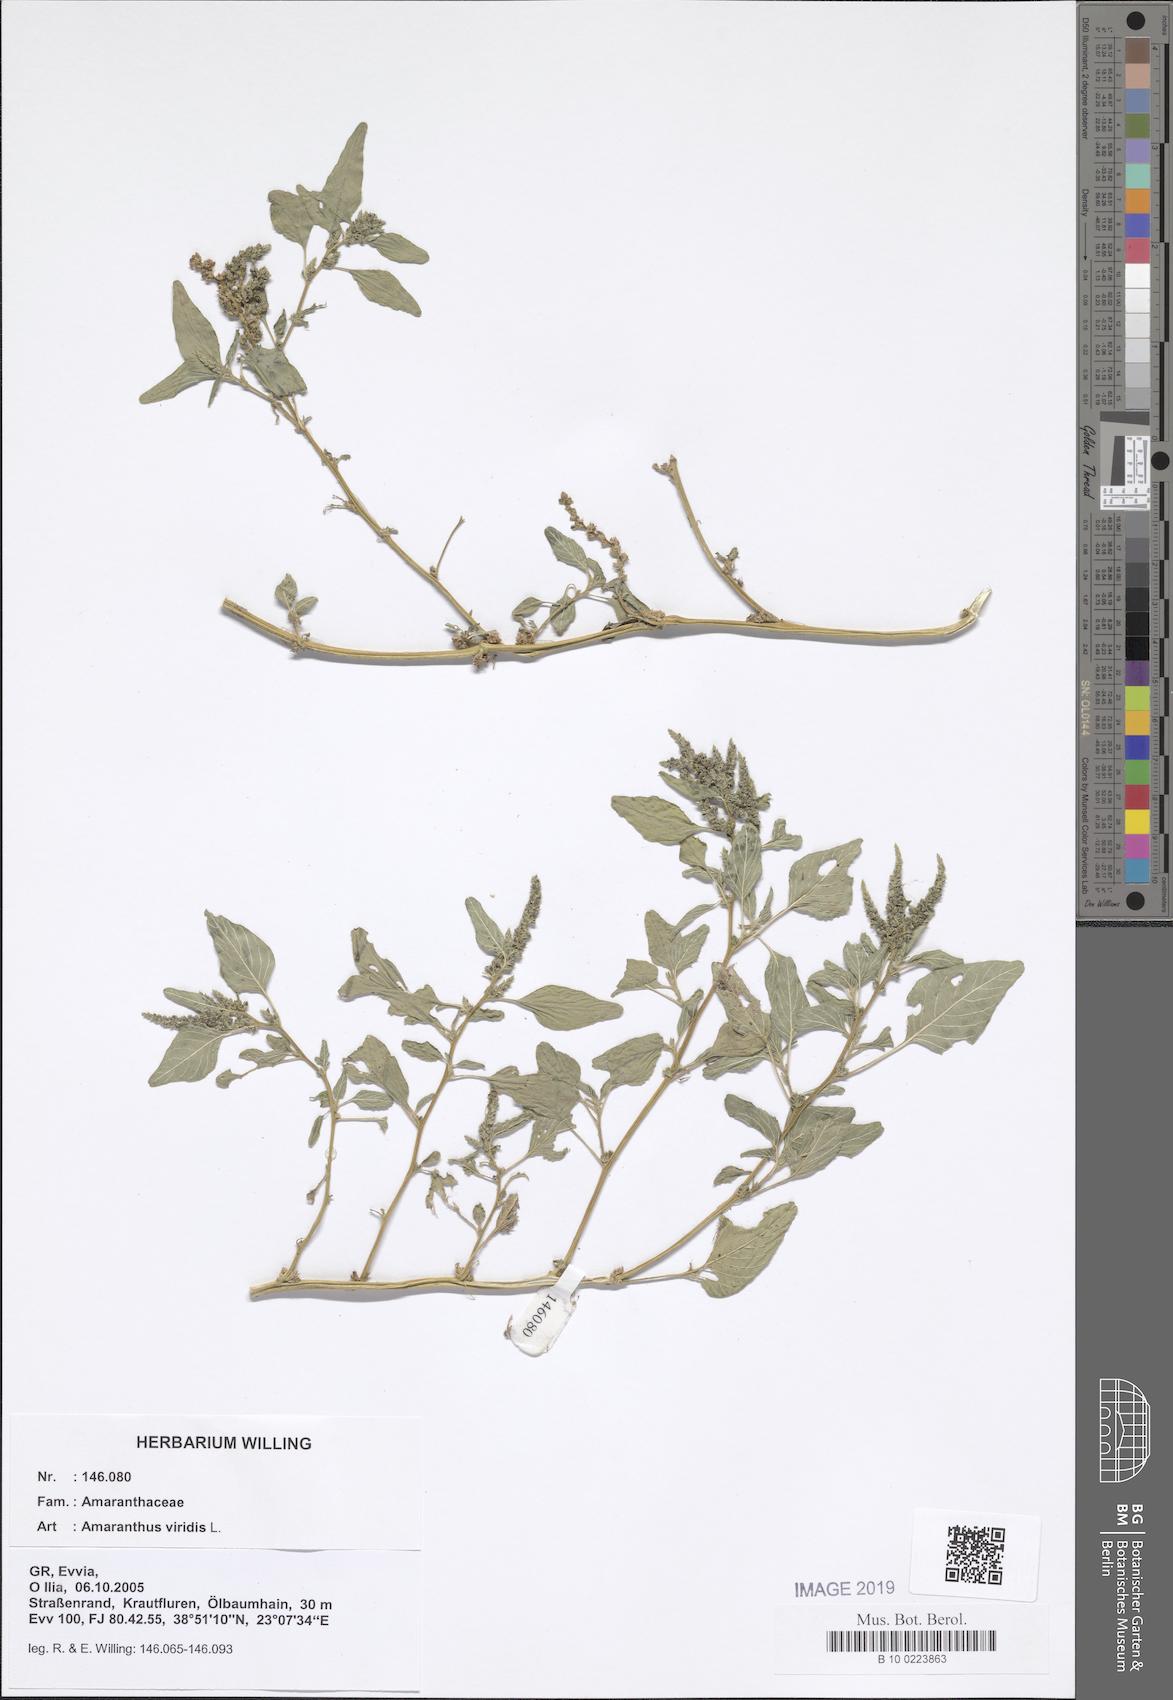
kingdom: Plantae
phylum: Tracheophyta
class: Magnoliopsida
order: Caryophyllales
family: Amaranthaceae
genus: Amaranthus
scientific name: Amaranthus viridis
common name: Slender amaranth
